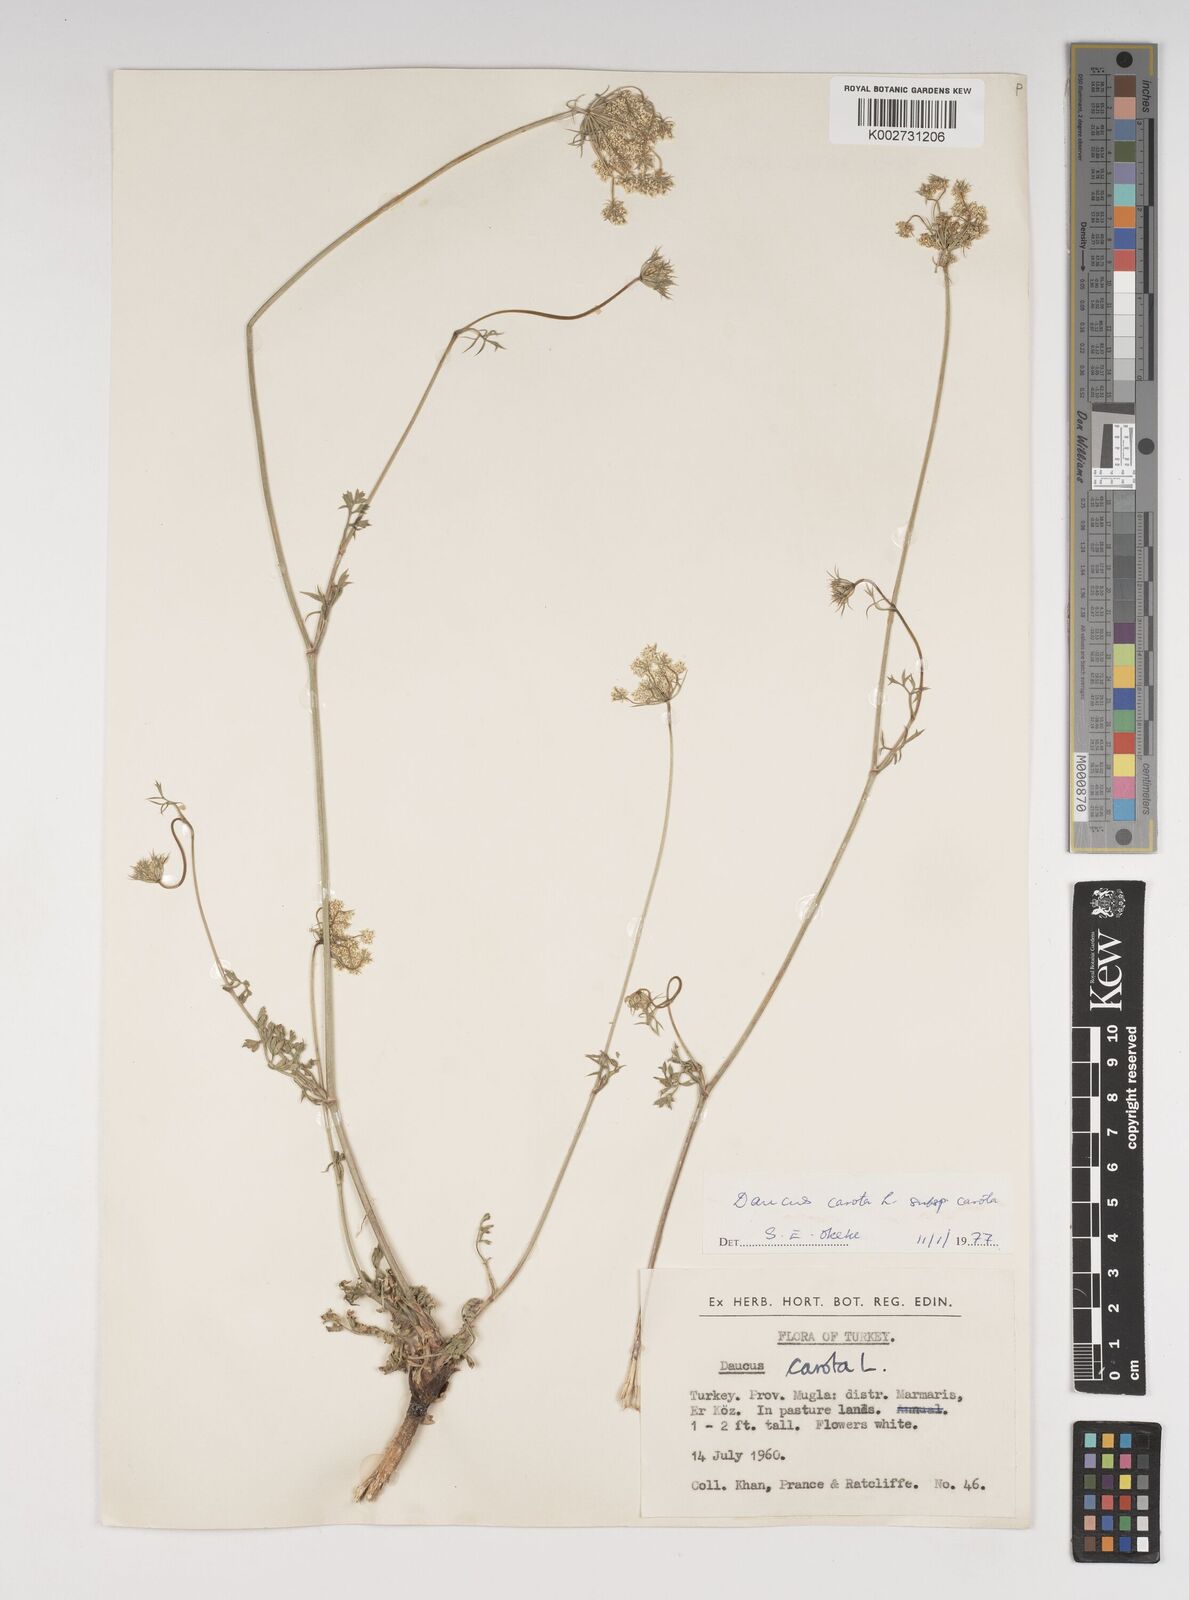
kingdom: Plantae
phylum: Tracheophyta
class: Magnoliopsida
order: Apiales
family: Apiaceae
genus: Daucus
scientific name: Daucus carota
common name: Wild carrot
